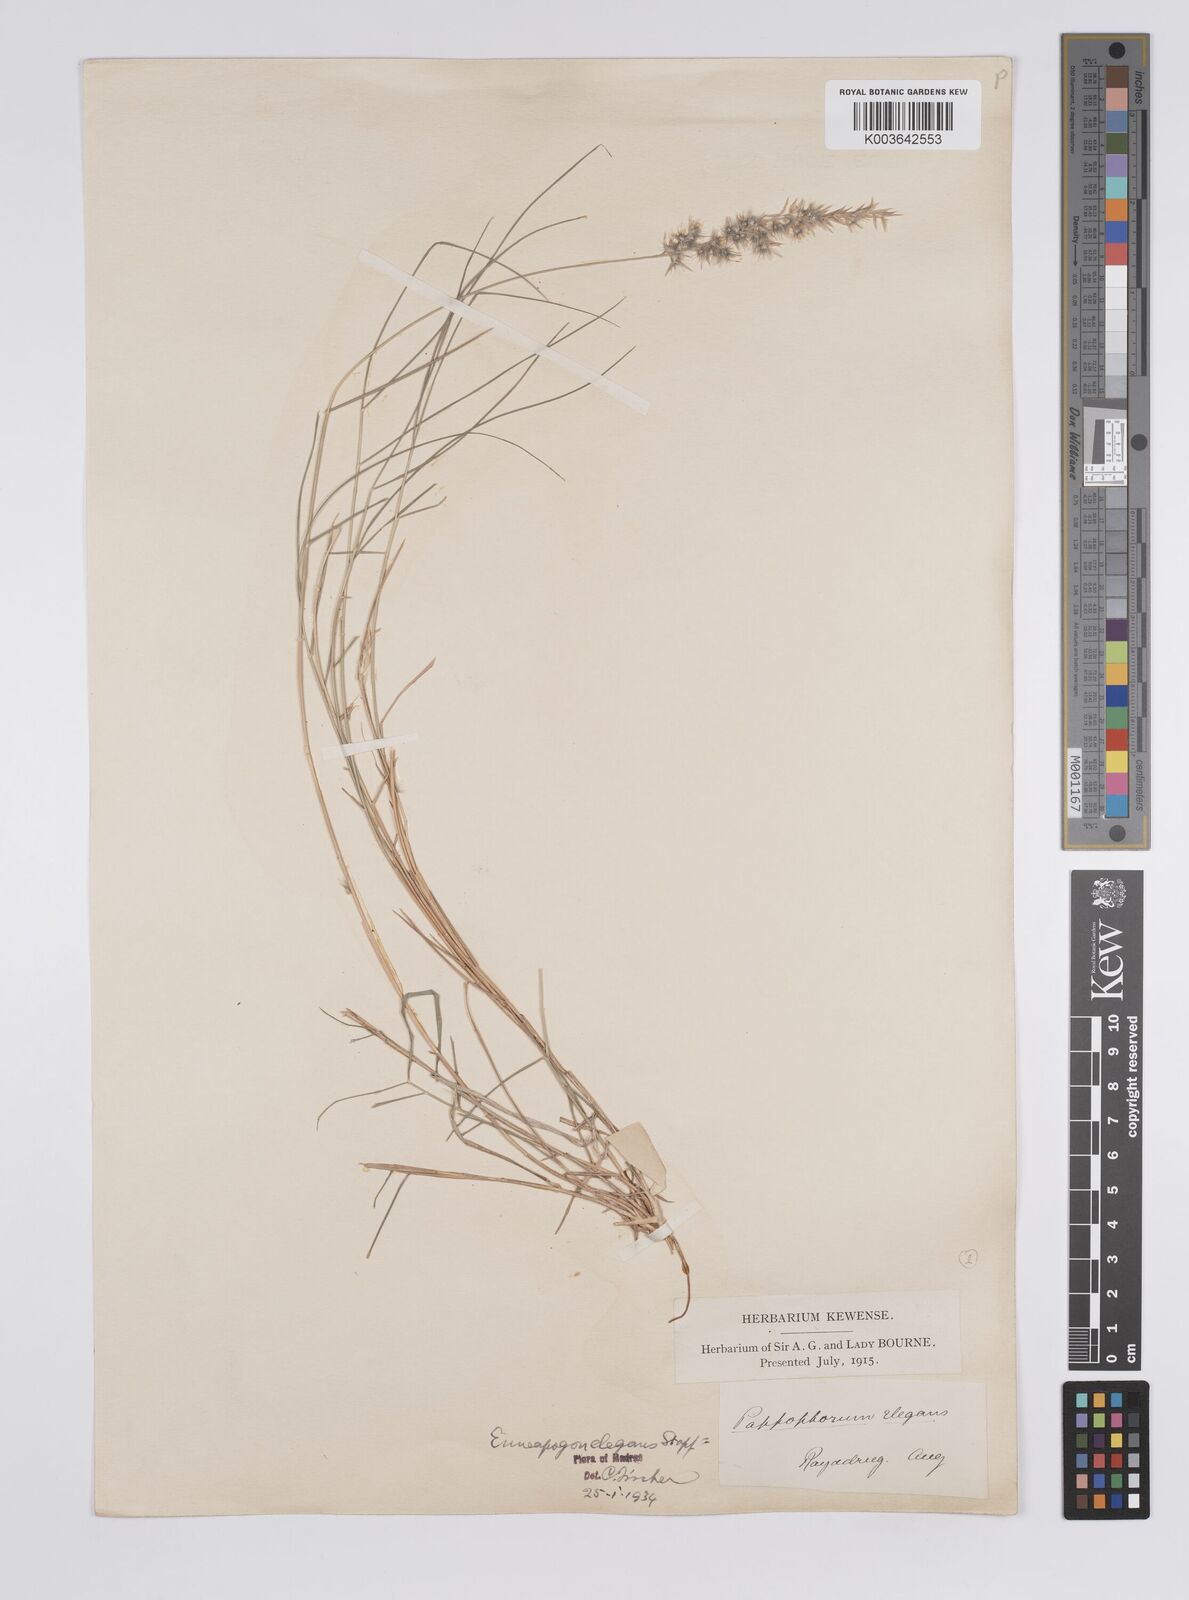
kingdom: Plantae
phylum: Tracheophyta
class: Liliopsida
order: Poales
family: Poaceae
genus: Enneapogon
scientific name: Enneapogon persicus
